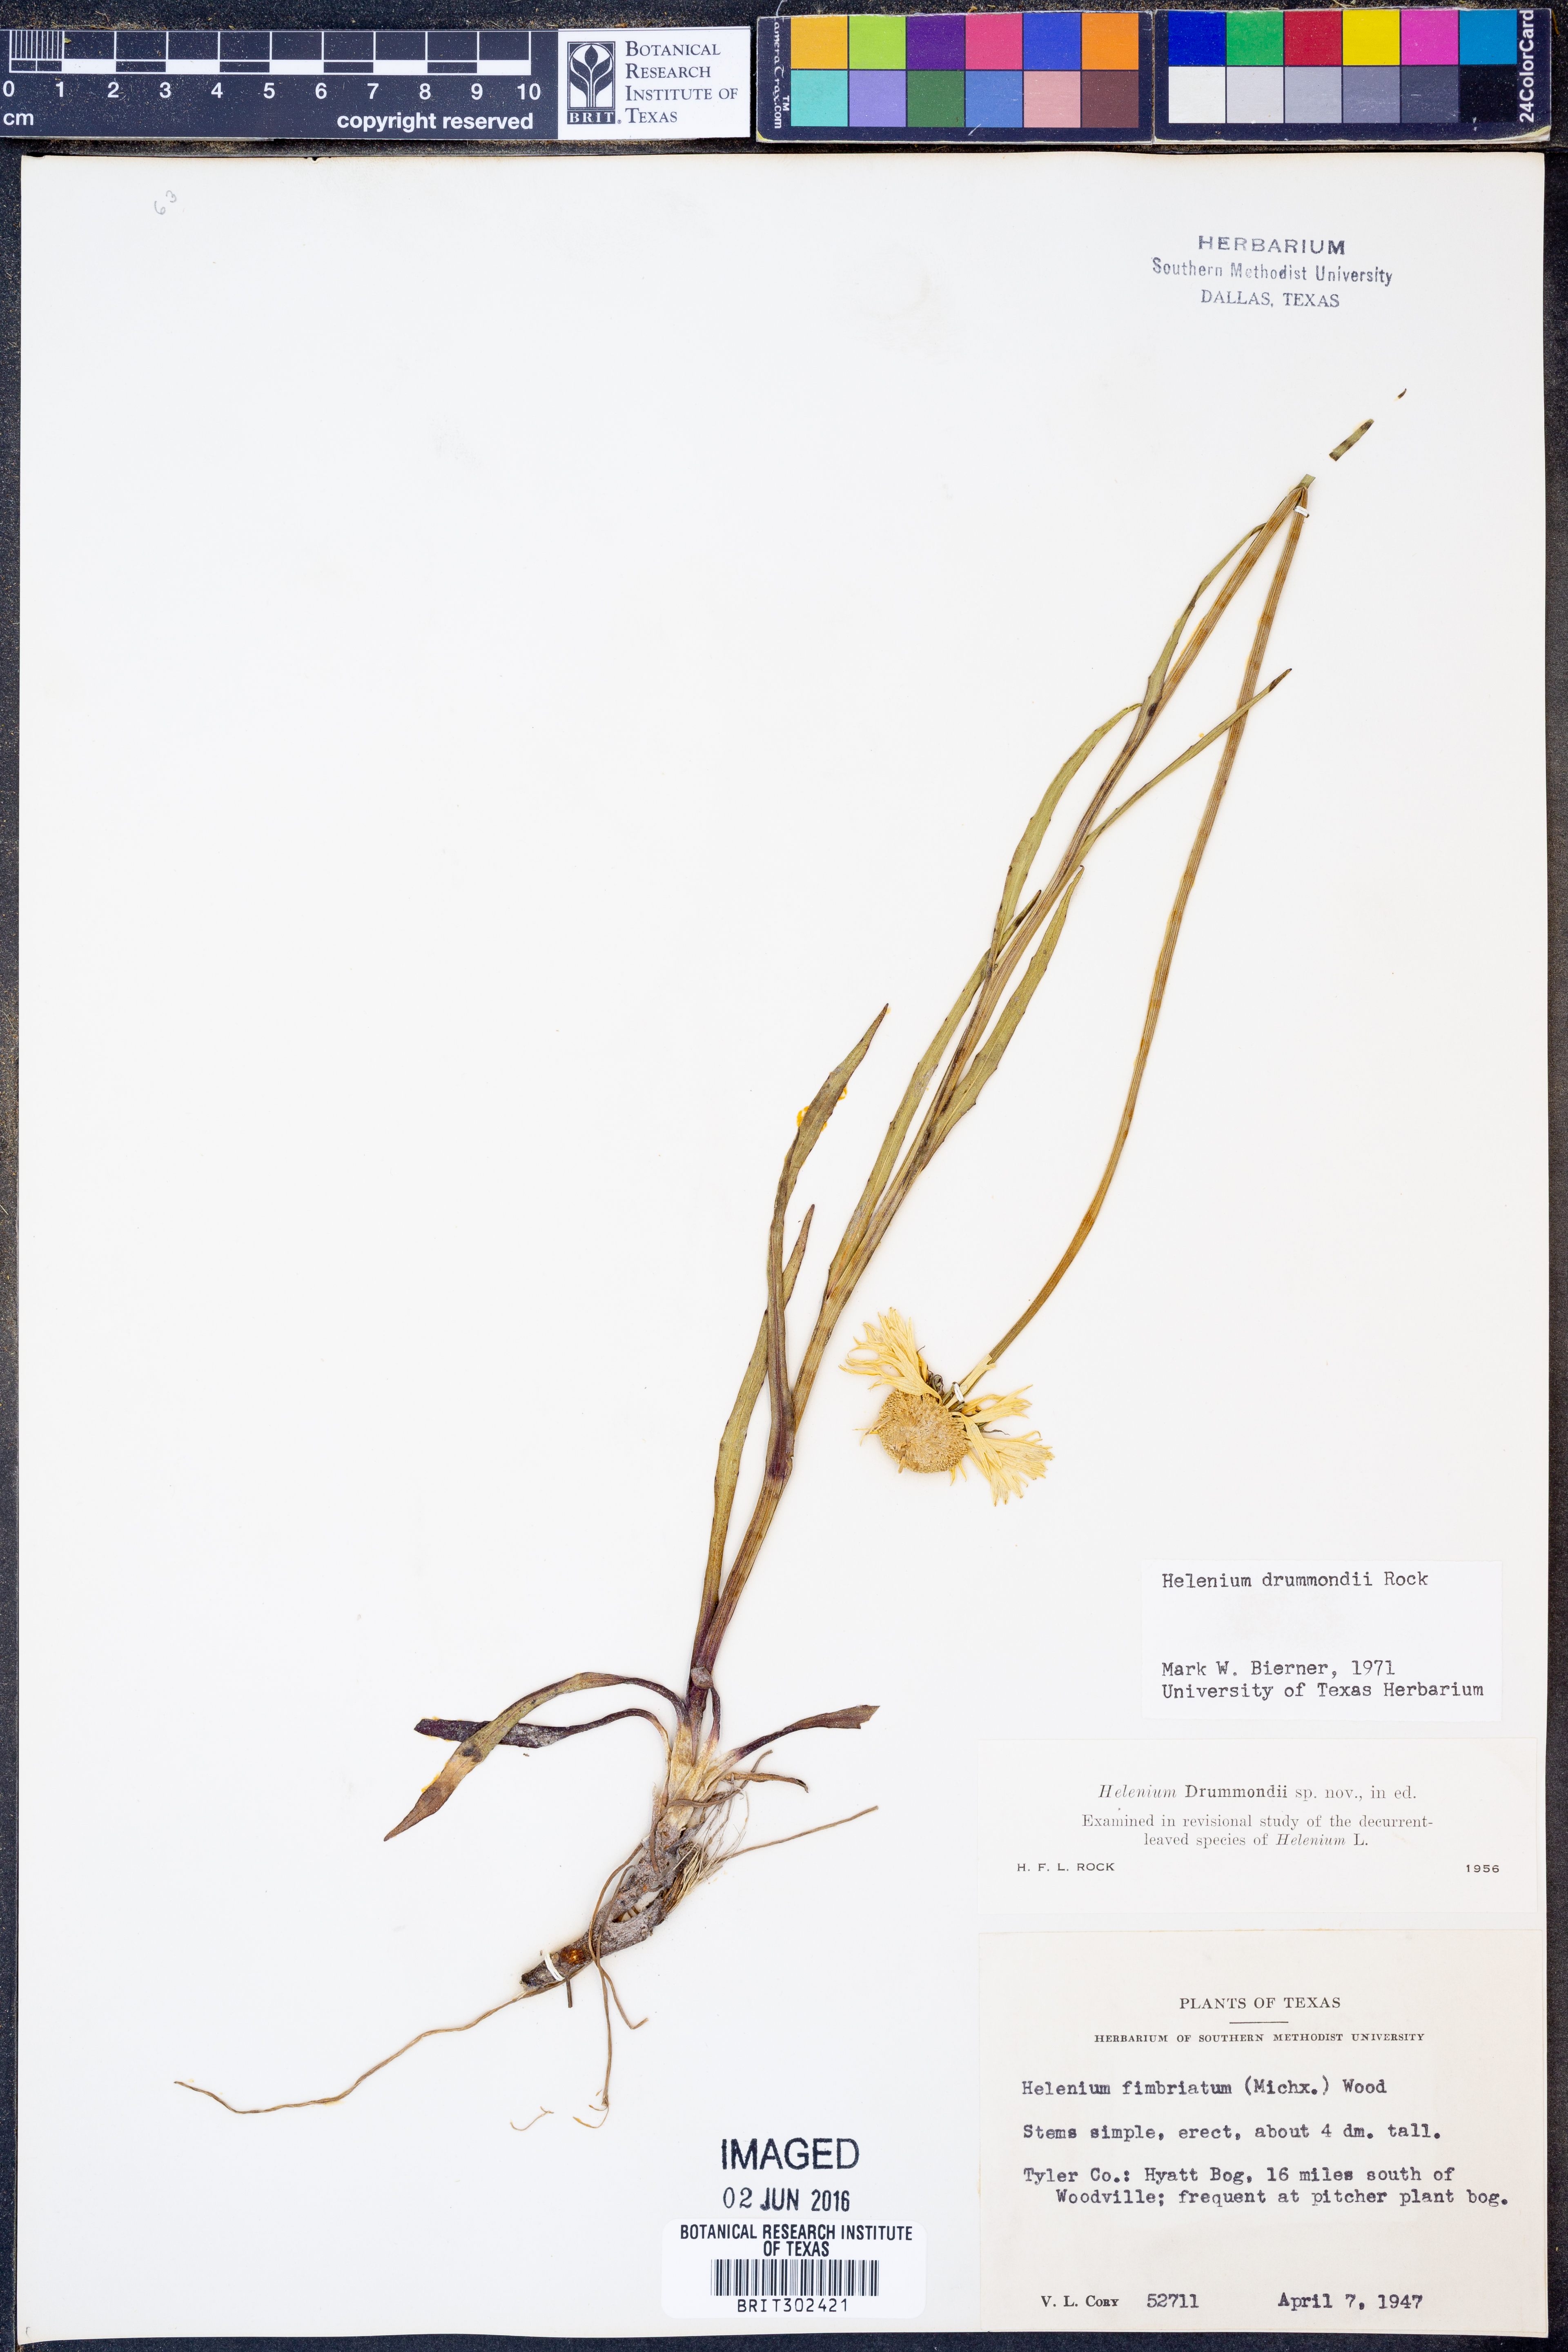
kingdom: Plantae
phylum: Tracheophyta
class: Magnoliopsida
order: Asterales
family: Asteraceae
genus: Helenium
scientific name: Helenium drummondii
